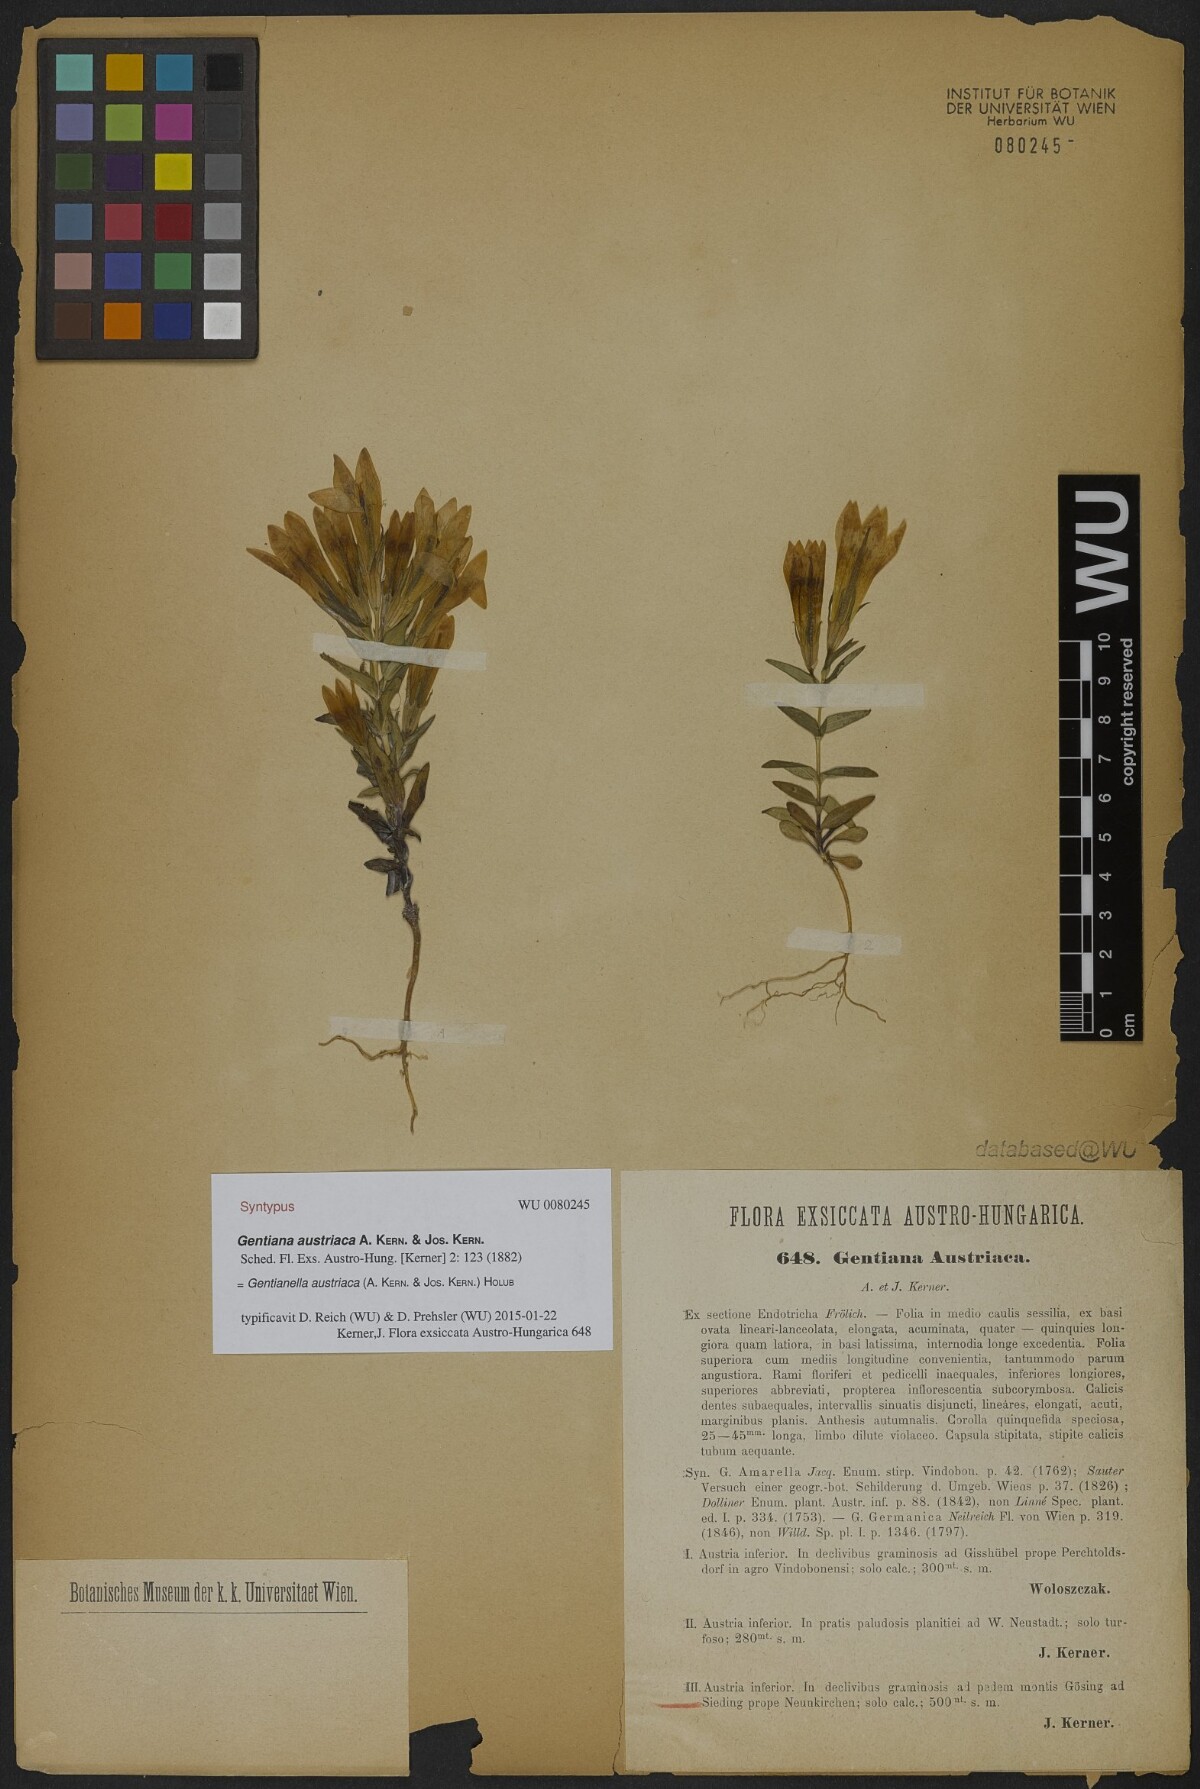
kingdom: Plantae
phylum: Tracheophyta
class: Magnoliopsida
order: Gentianales
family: Gentianaceae
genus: Gentianella
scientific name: Gentianella austriaca
